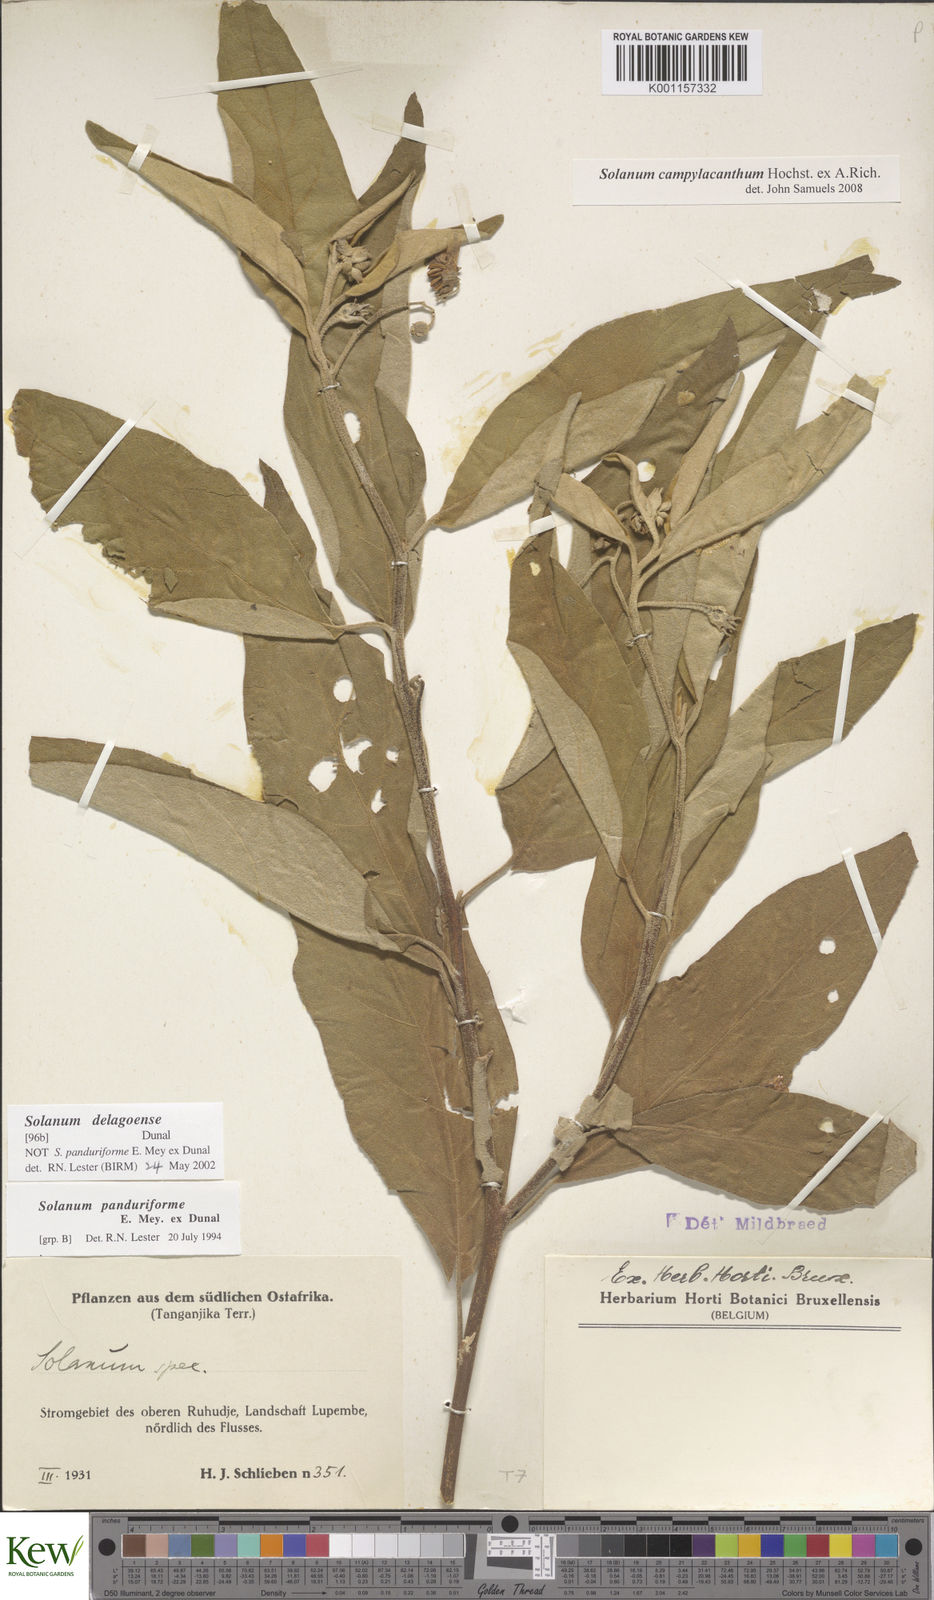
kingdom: Plantae
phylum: Tracheophyta
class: Magnoliopsida
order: Solanales
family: Solanaceae
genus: Solanum
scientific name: Solanum campylacanthum
